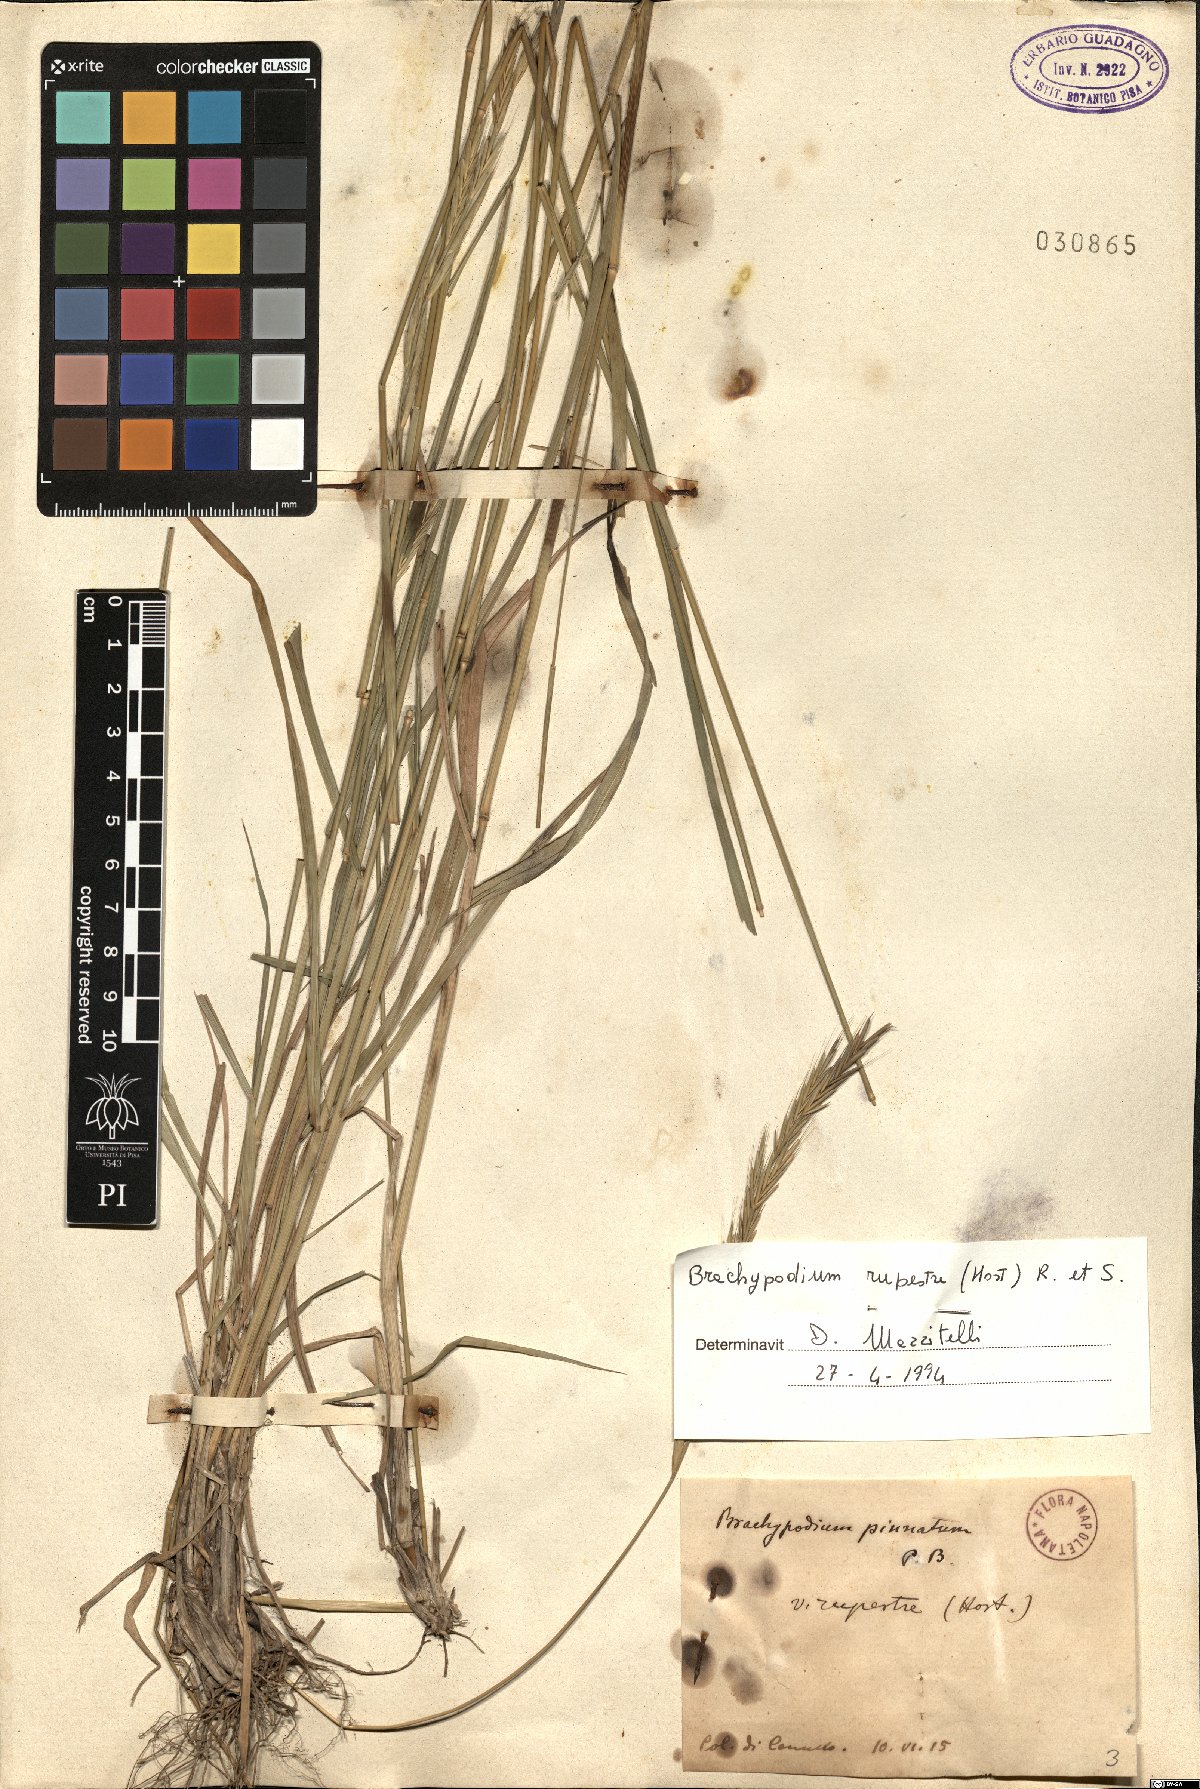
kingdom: Plantae
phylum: Tracheophyta
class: Liliopsida
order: Poales
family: Poaceae
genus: Brachypodium
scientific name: Brachypodium pinnatum
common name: Tor grass
